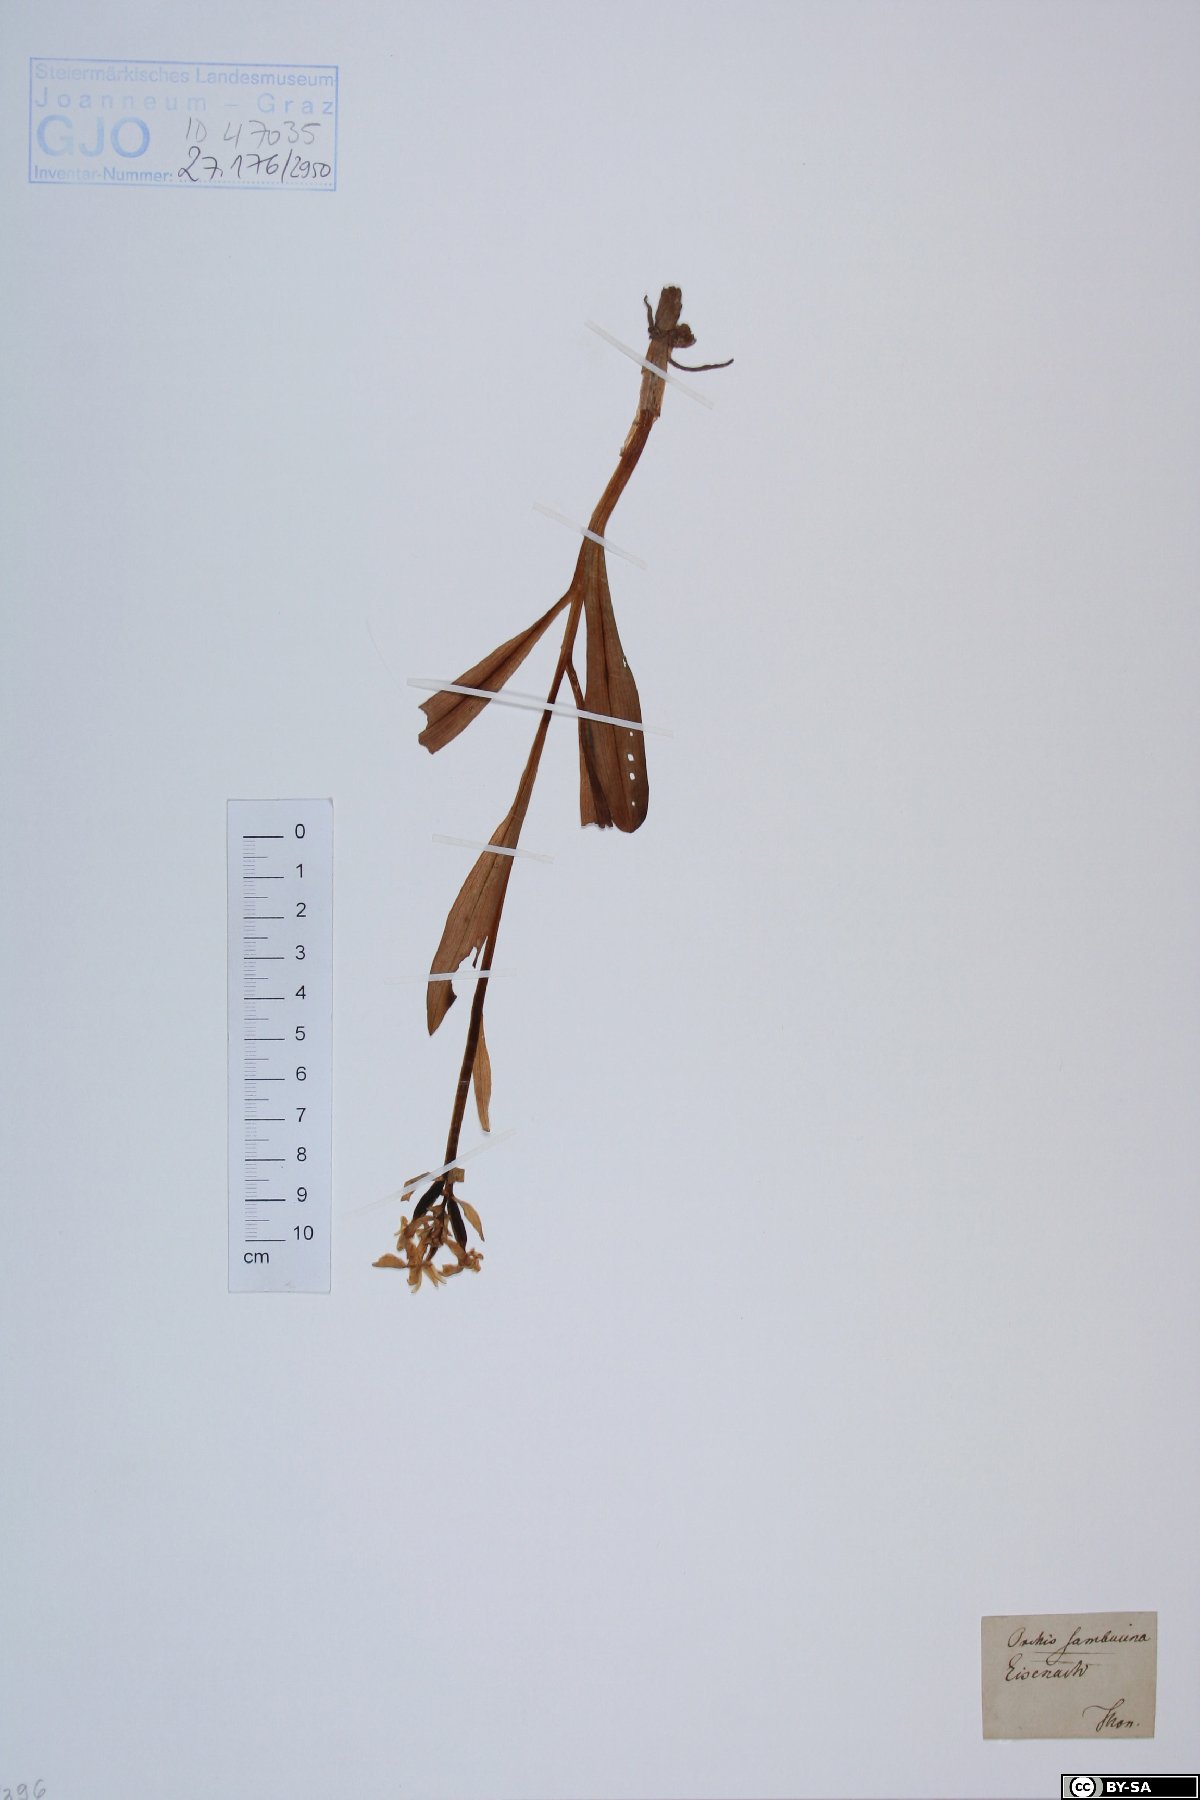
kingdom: Plantae
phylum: Tracheophyta
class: Liliopsida
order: Asparagales
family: Orchidaceae
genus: Dactylorhiza
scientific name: Dactylorhiza sambucina
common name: Elder-flowered orchid
